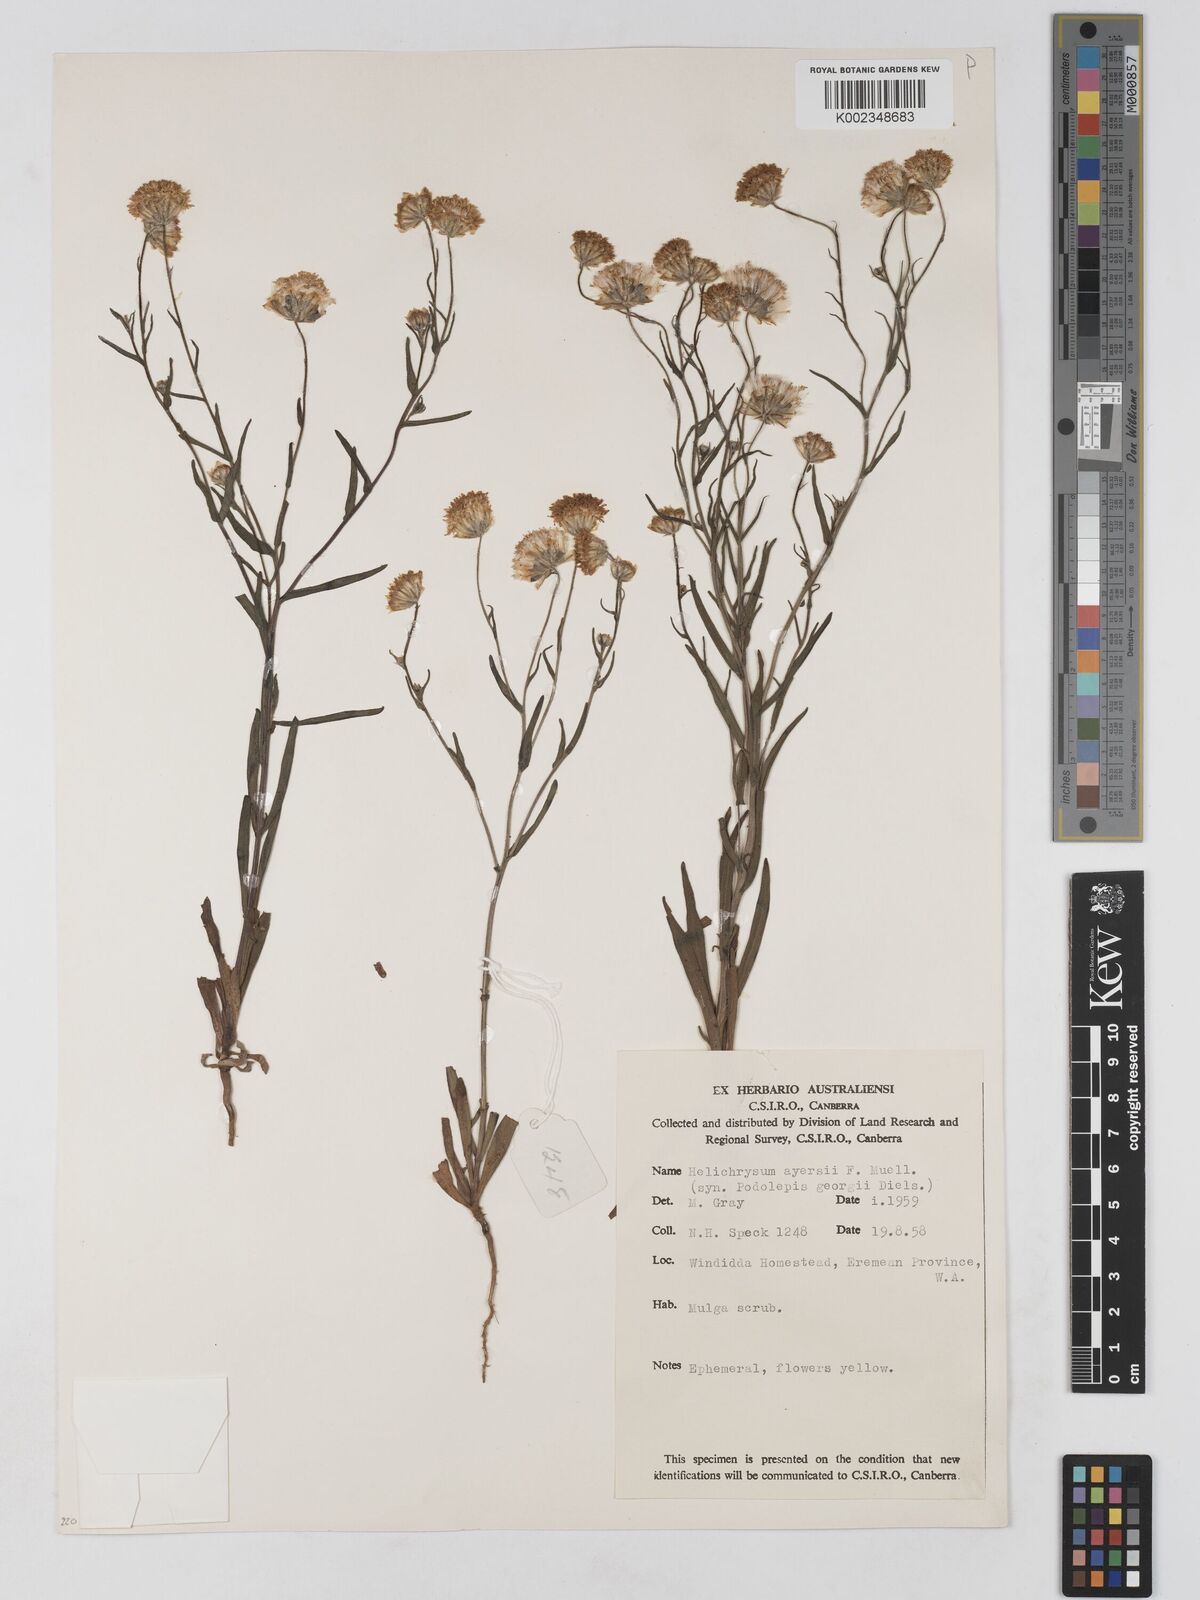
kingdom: Plantae
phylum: Tracheophyta
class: Magnoliopsida
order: Asterales
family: Asteraceae
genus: Schoenia
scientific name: Schoenia ayersii
